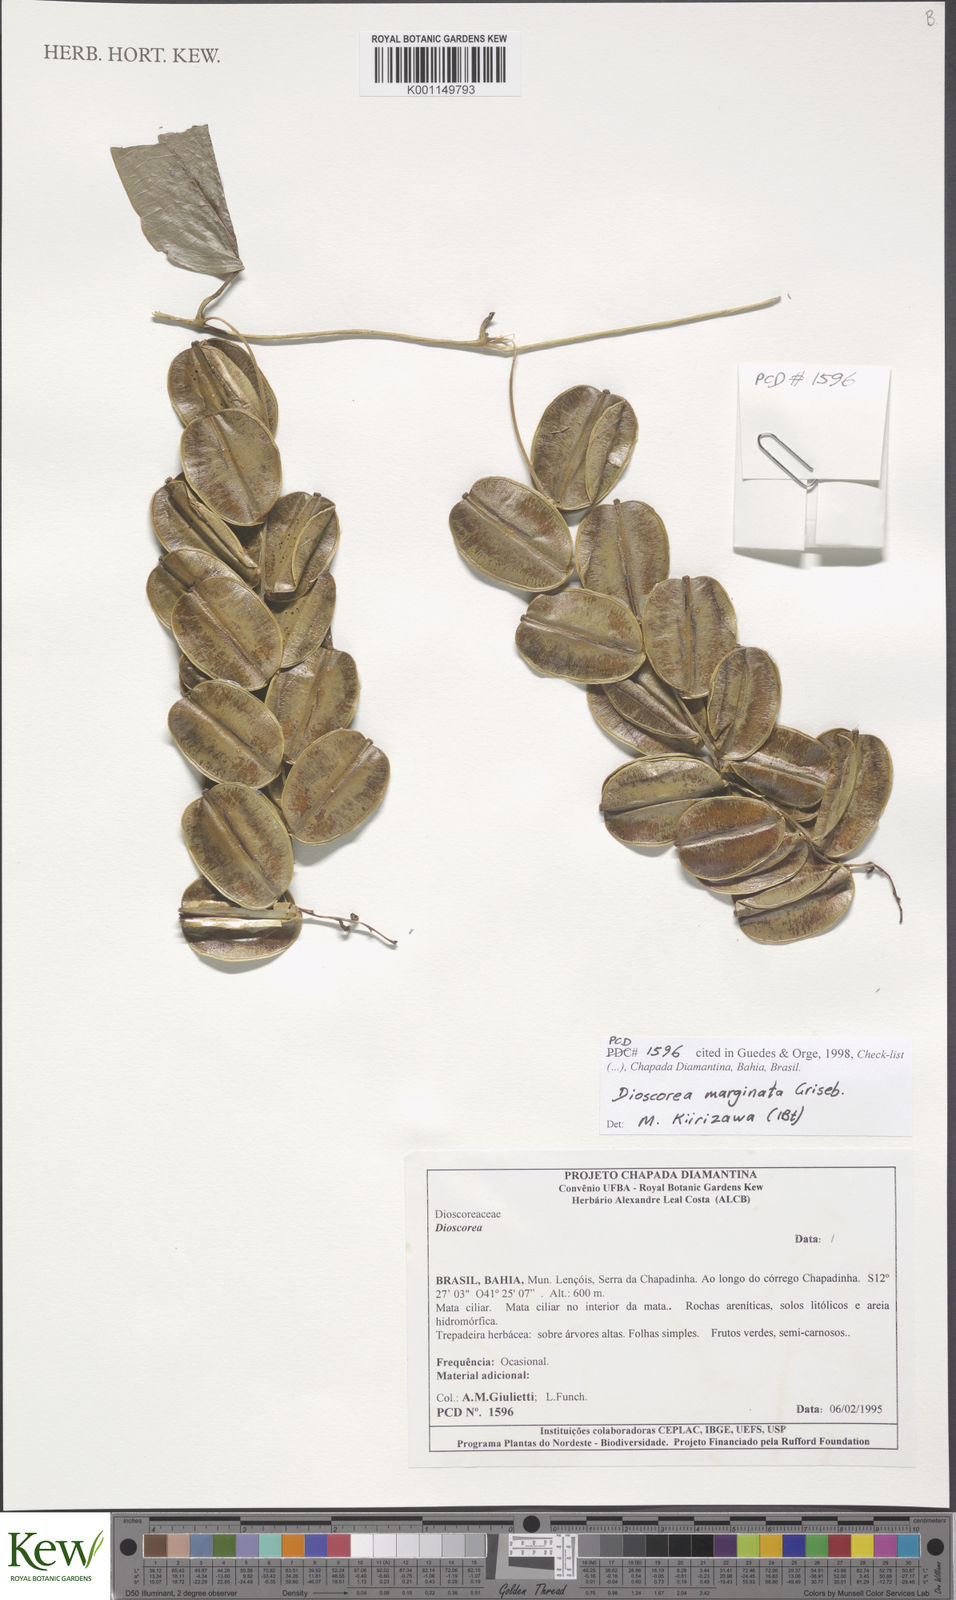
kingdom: Plantae
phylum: Tracheophyta
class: Liliopsida
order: Dioscoreales
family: Dioscoreaceae
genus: Dioscorea
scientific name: Dioscorea marginata
